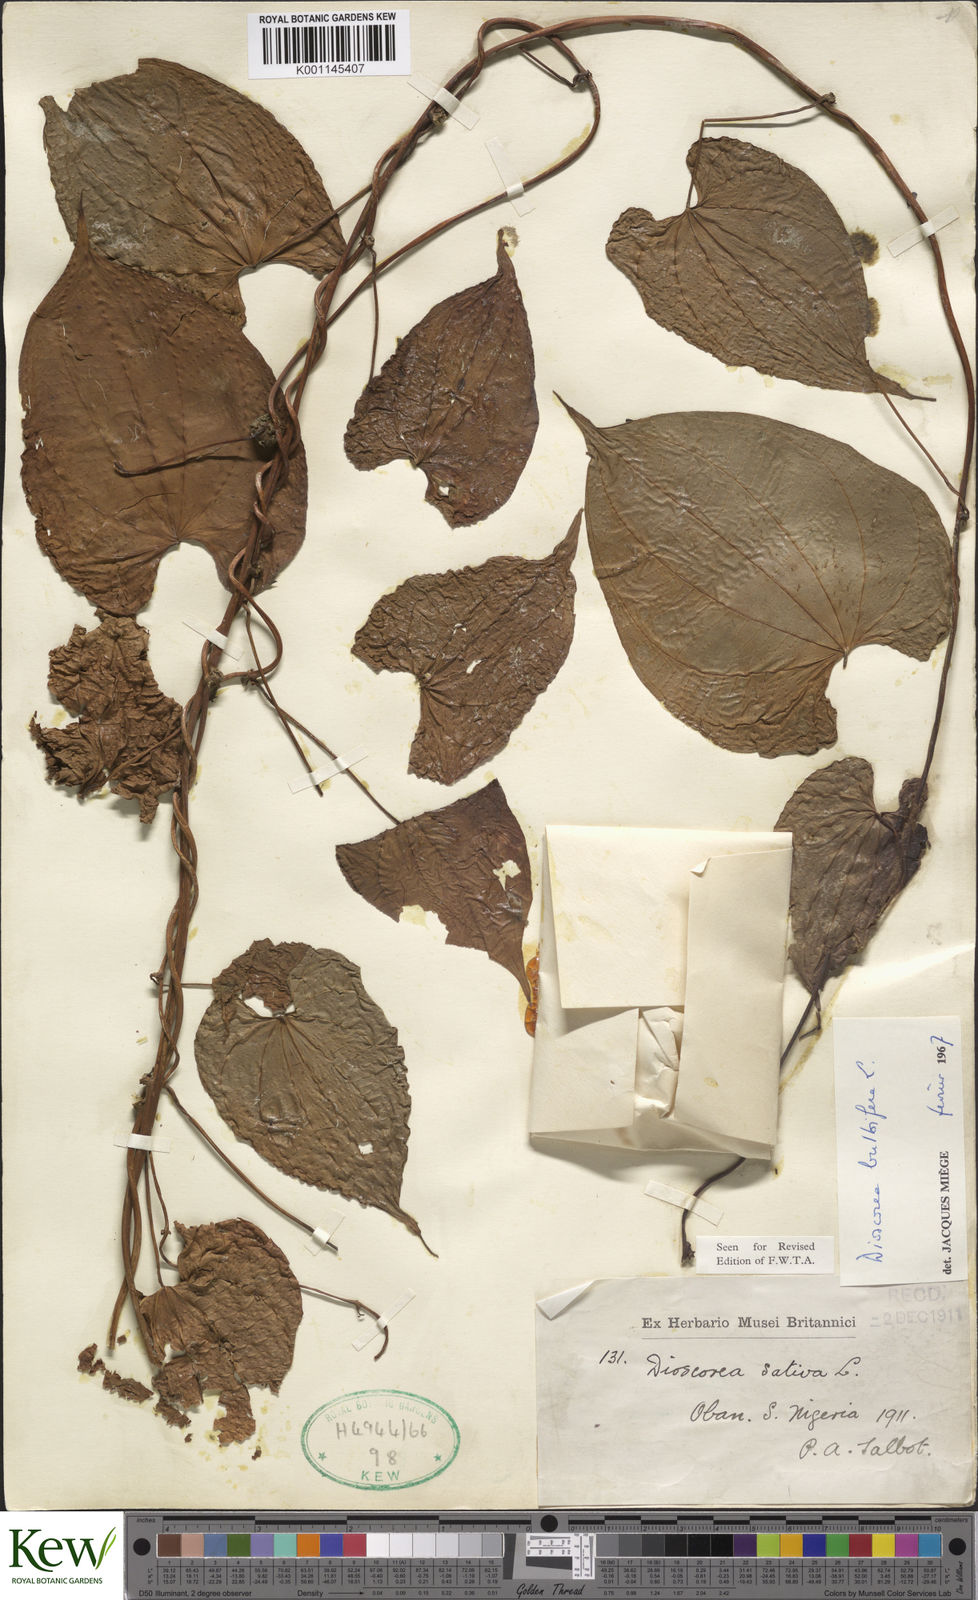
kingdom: Plantae
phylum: Tracheophyta
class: Liliopsida
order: Dioscoreales
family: Dioscoreaceae
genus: Dioscorea
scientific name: Dioscorea bulbifera
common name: Air yam
